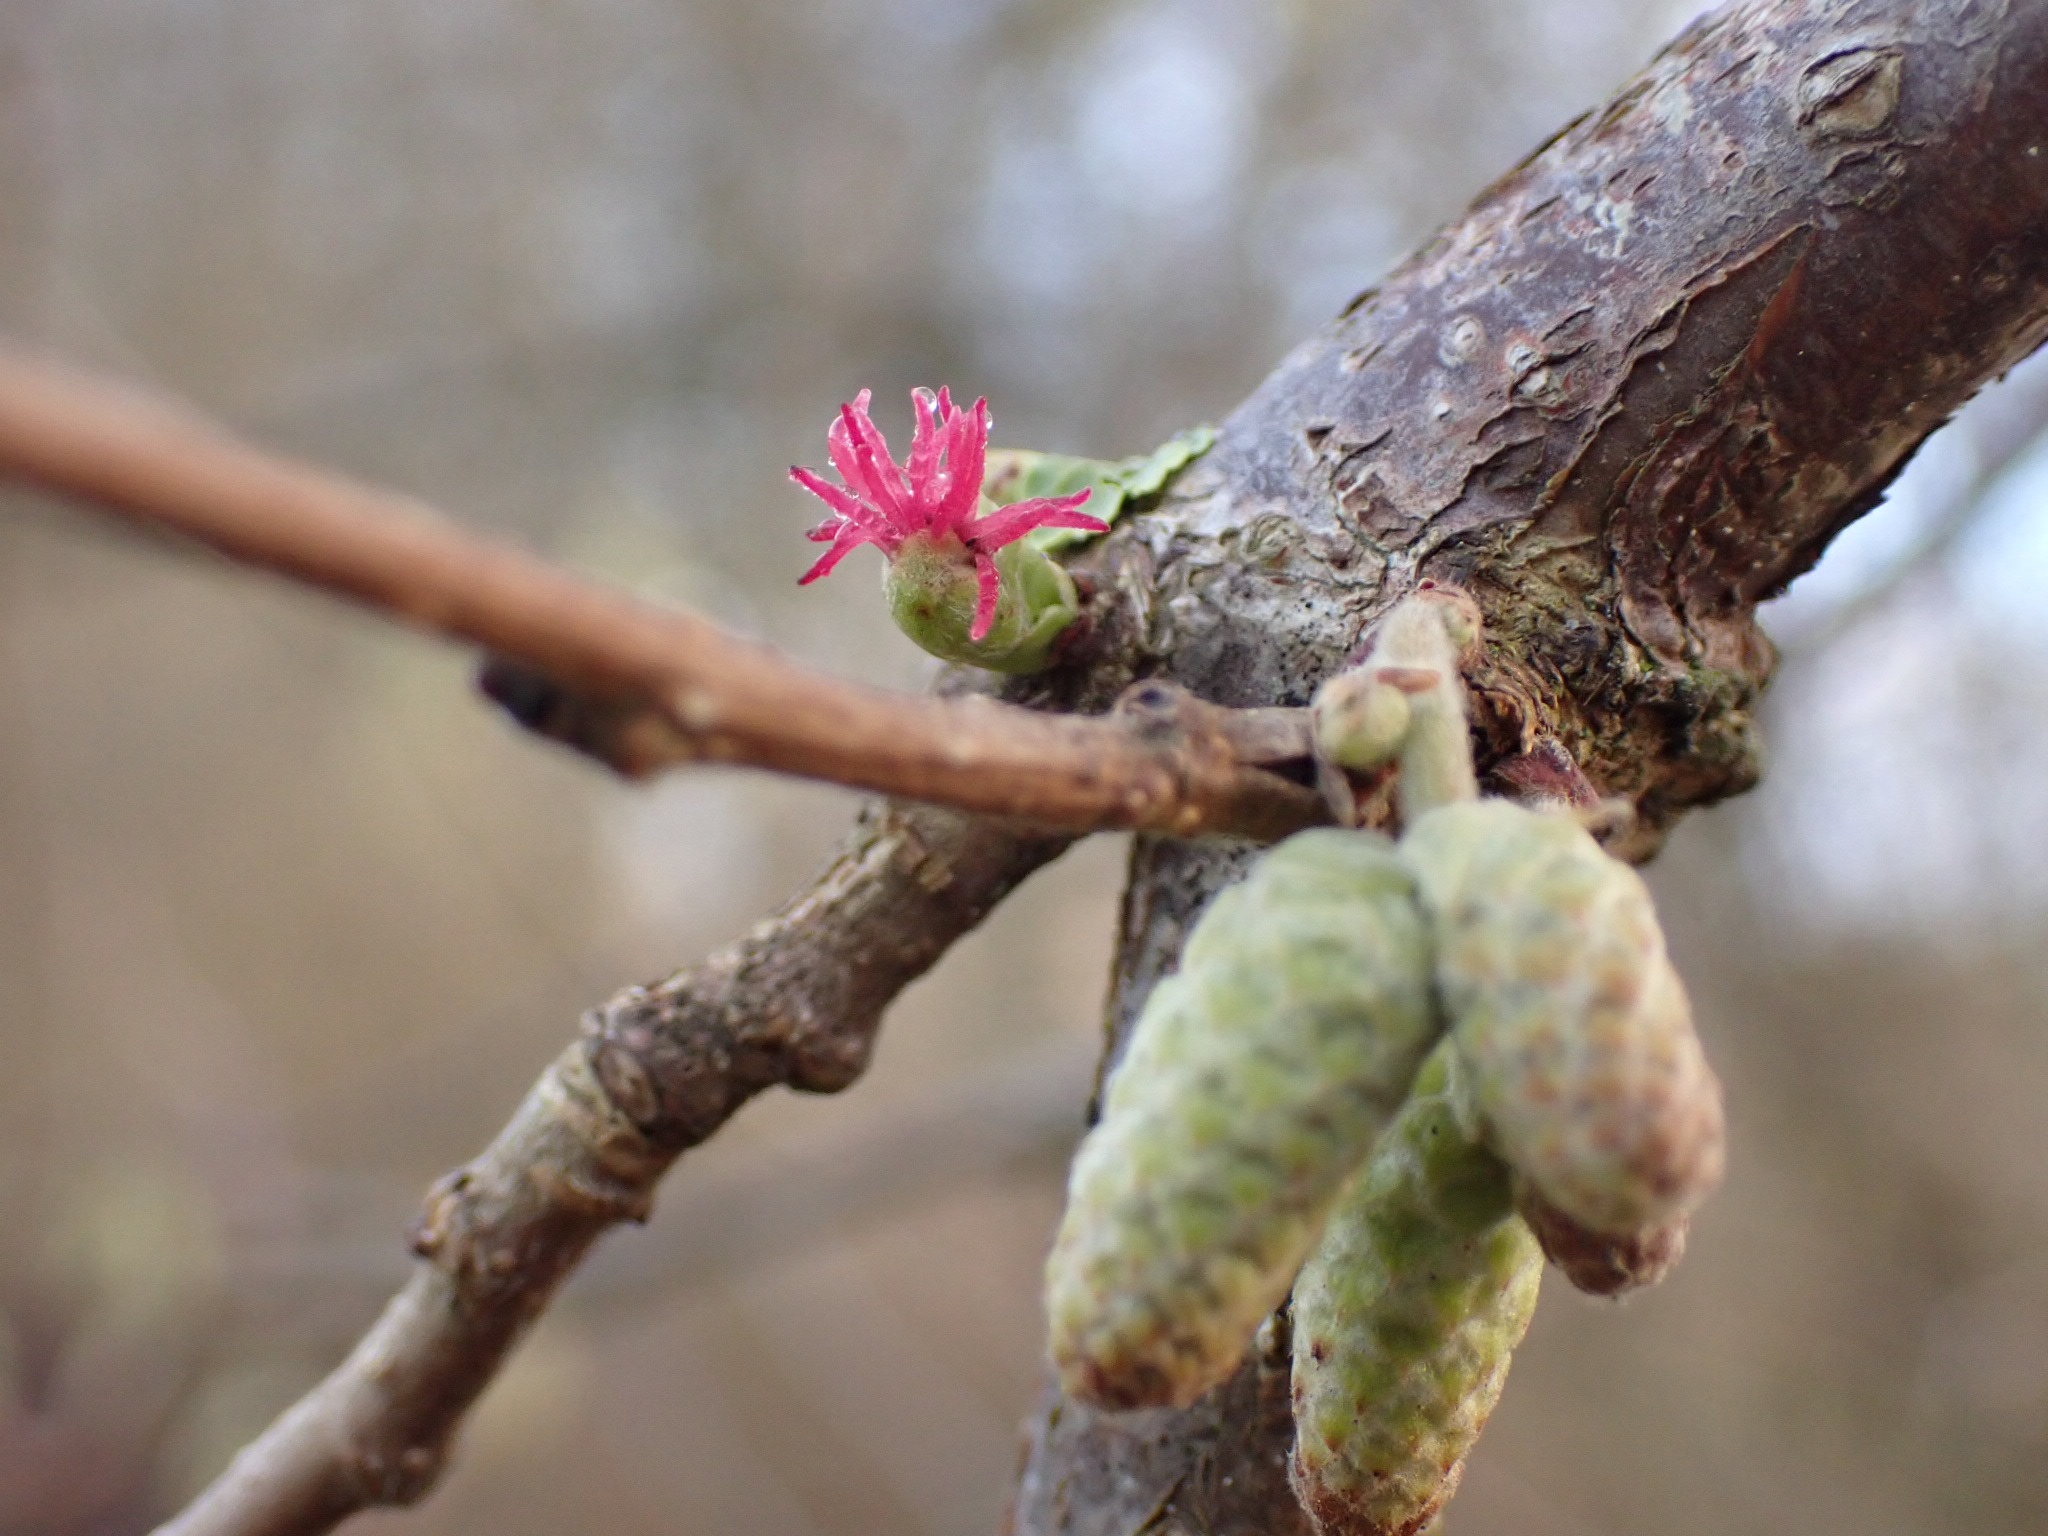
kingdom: Plantae
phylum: Tracheophyta
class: Magnoliopsida
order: Fagales
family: Betulaceae
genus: Corylus
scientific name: Corylus avellana
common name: Hassel
